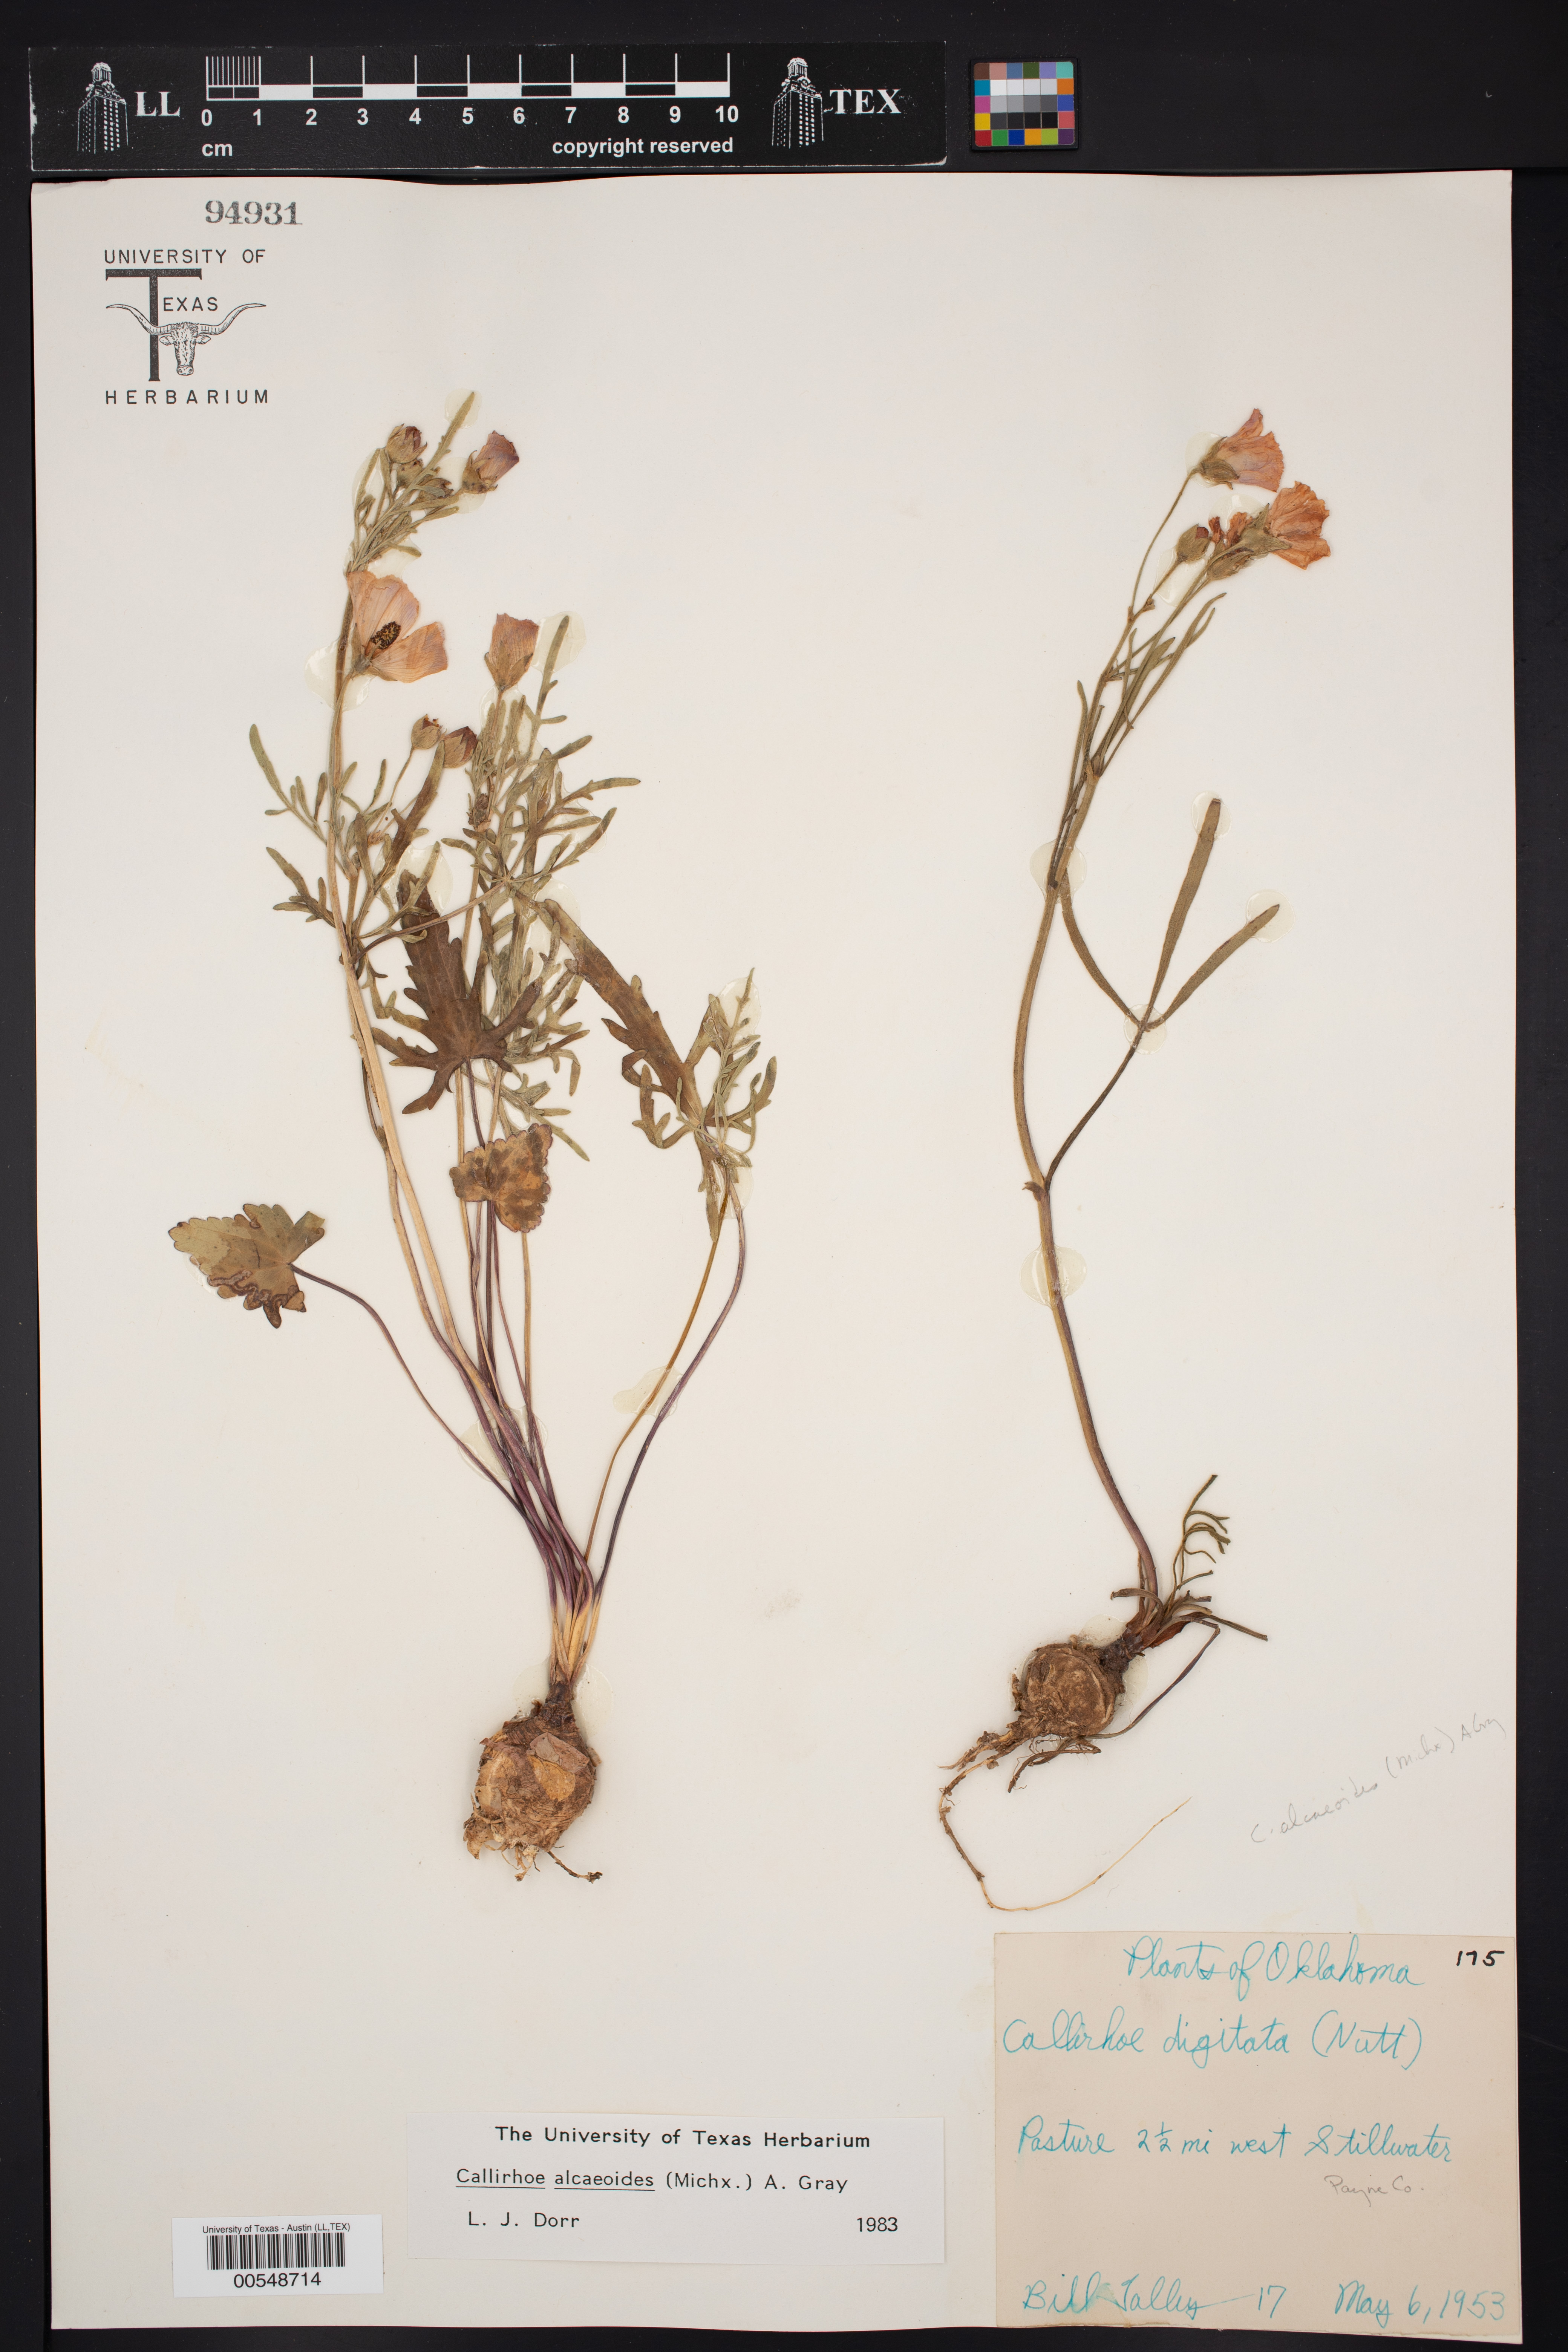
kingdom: Plantae
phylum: Tracheophyta
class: Magnoliopsida
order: Malvales
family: Malvaceae
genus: Callirhoe
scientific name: Callirhoe alcaeoides
